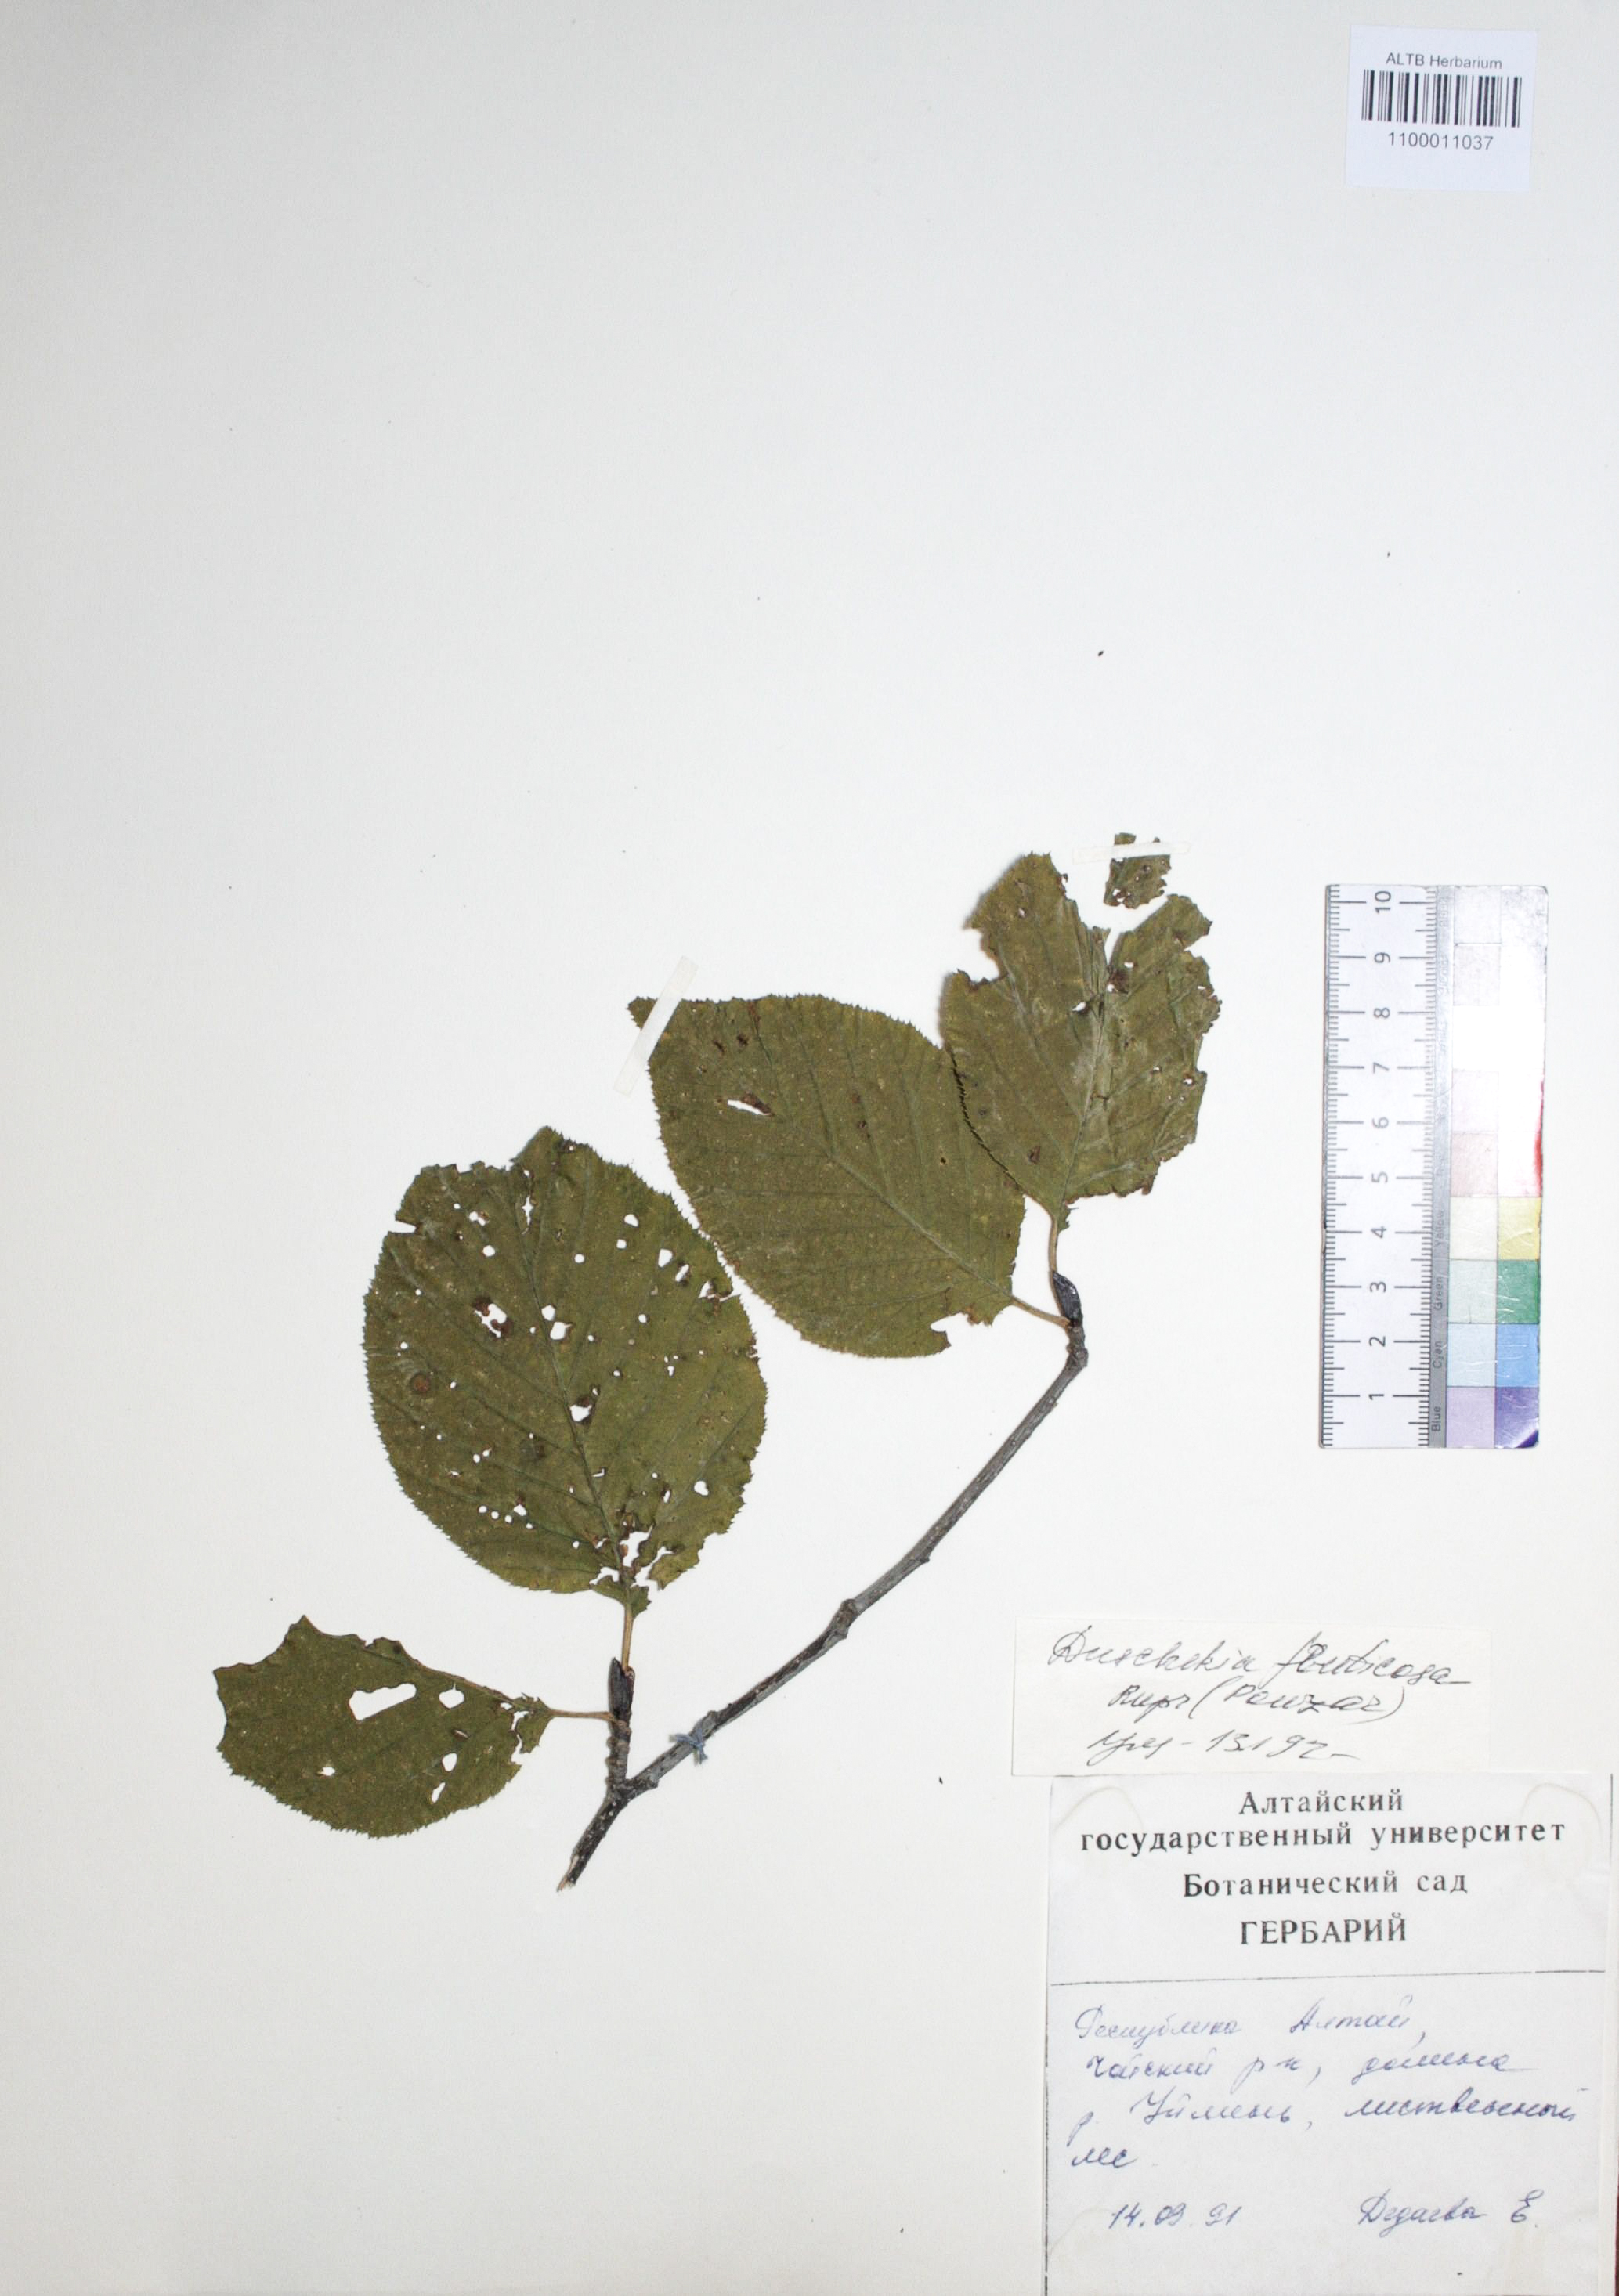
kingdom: Plantae
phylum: Tracheophyta
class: Magnoliopsida
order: Fagales
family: Betulaceae
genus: Alnus
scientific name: Alnus alnobetula
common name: Green alder
